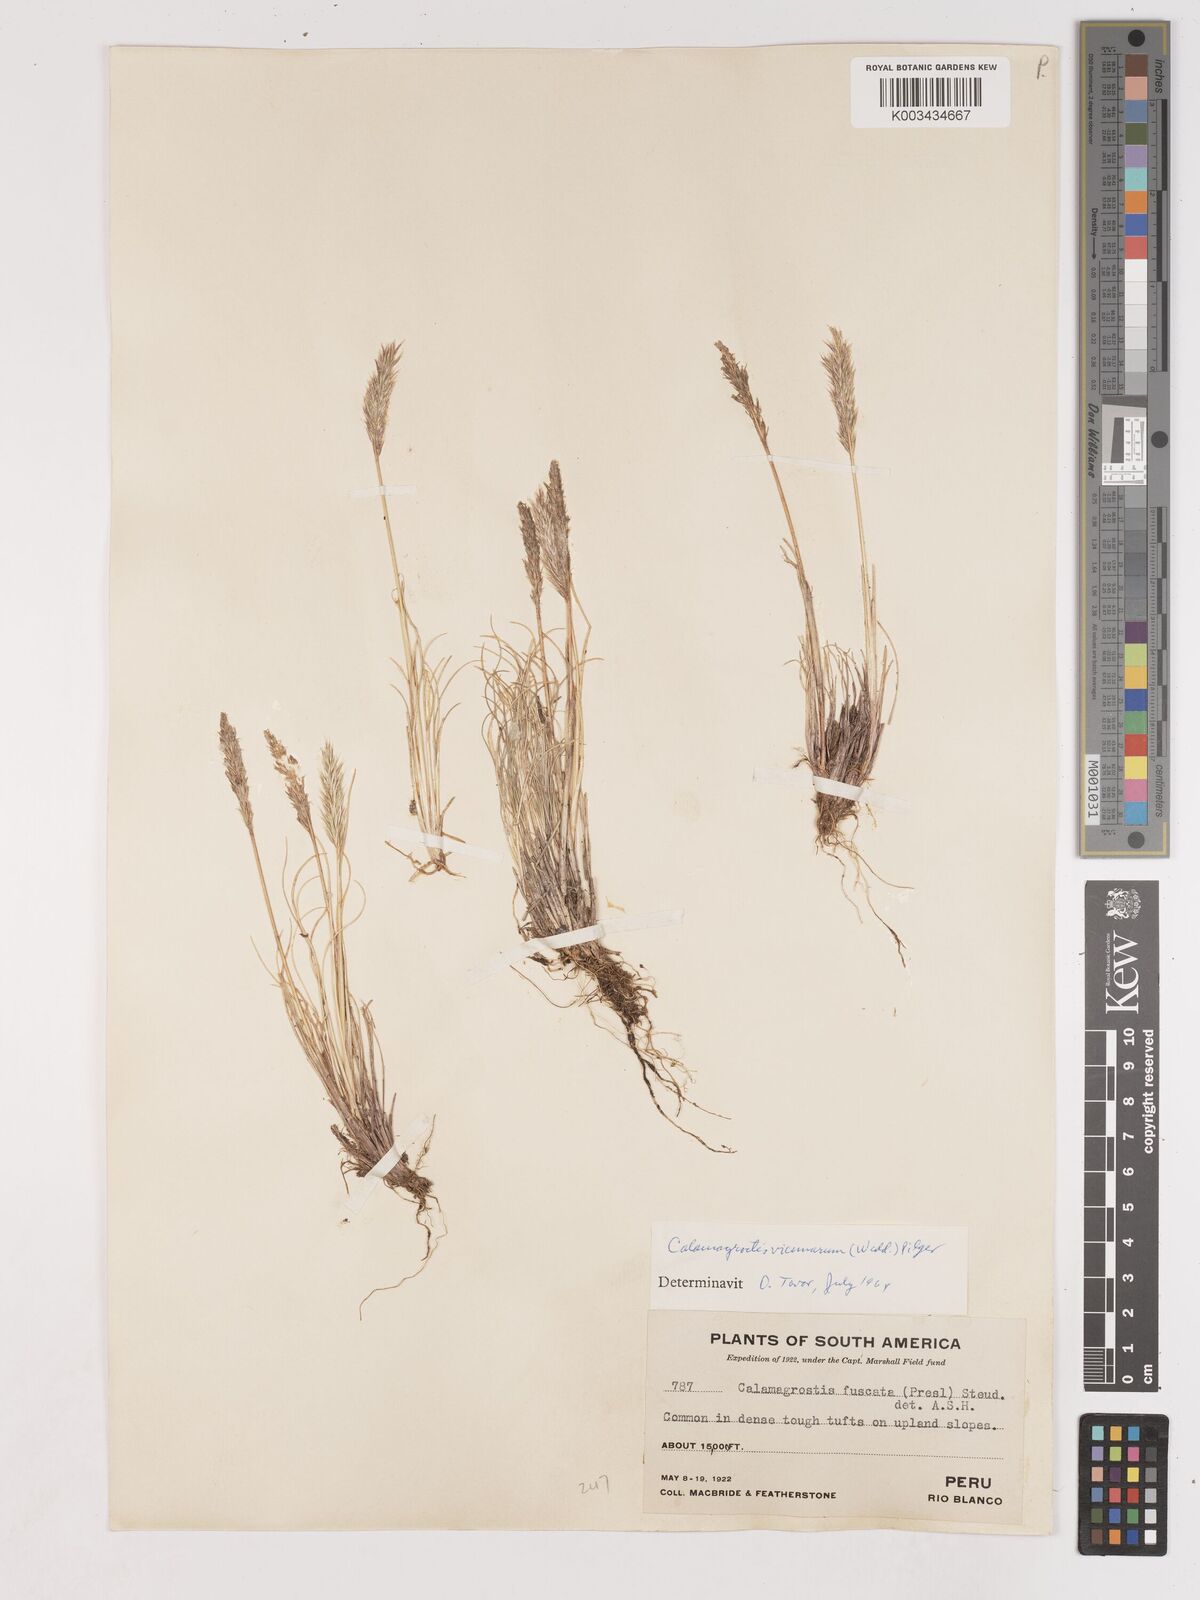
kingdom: Plantae
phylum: Tracheophyta
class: Liliopsida
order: Poales
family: Poaceae
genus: Cinnagrostis
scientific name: Cinnagrostis vicunarum
